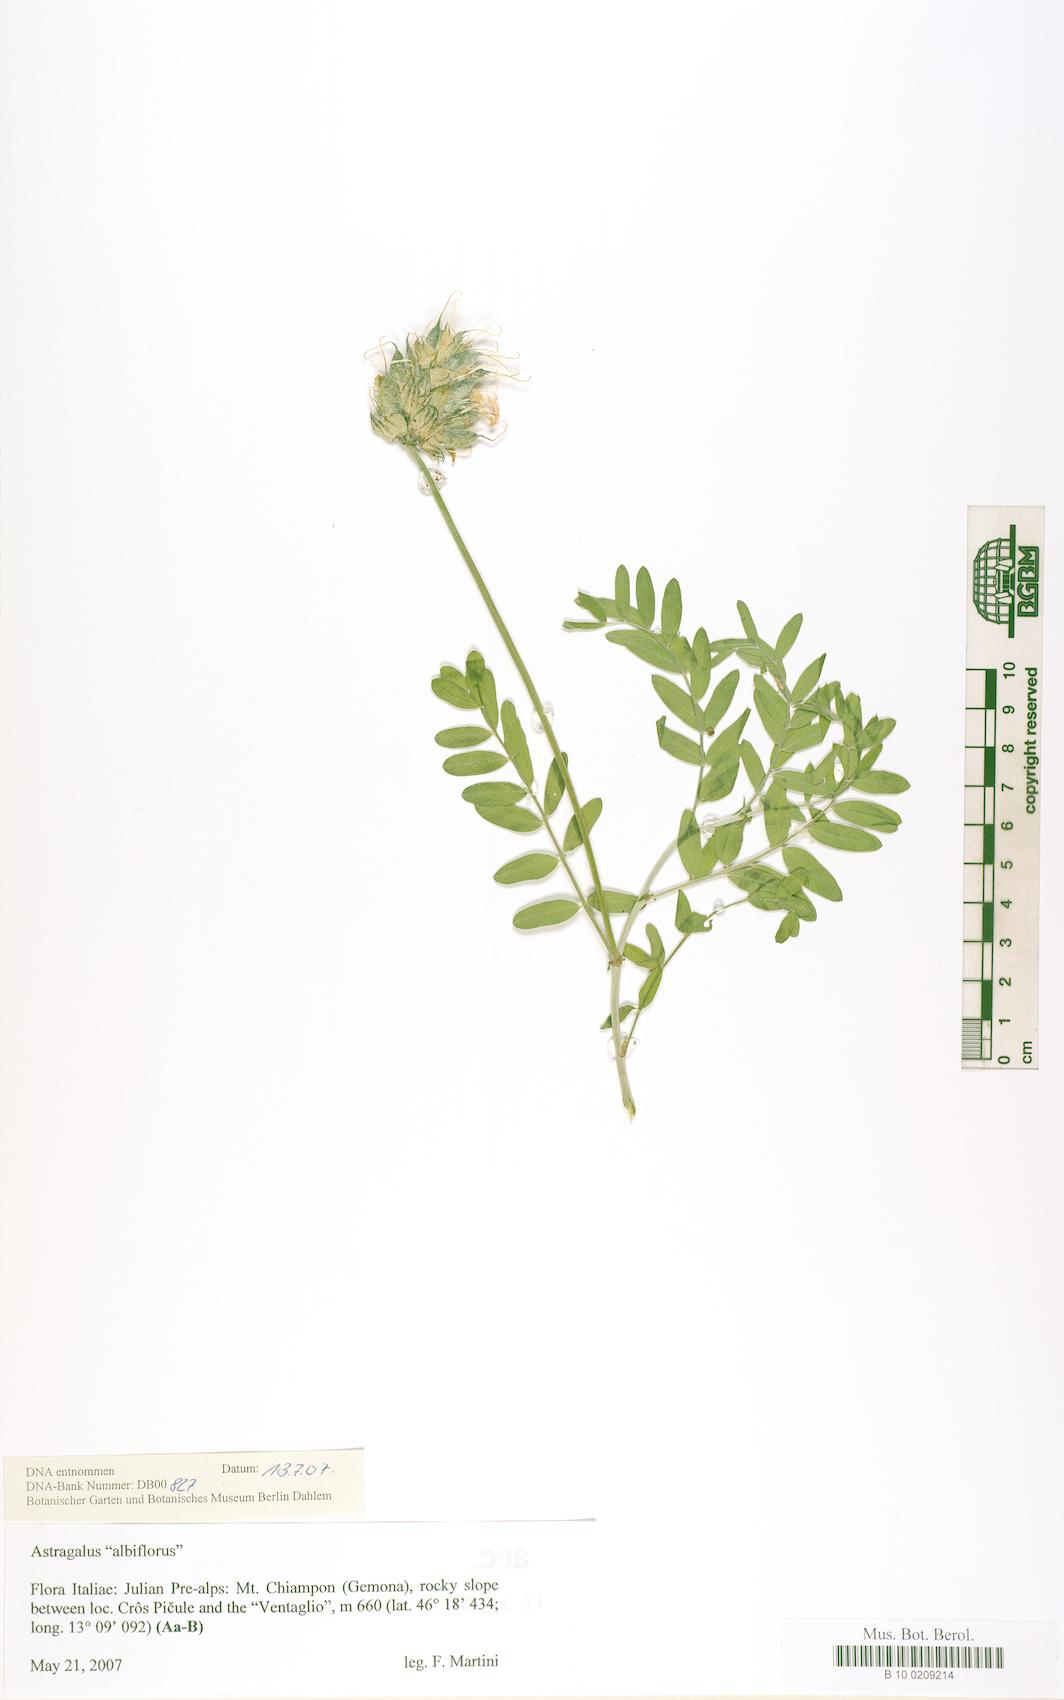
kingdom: Plantae
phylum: Tracheophyta
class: Magnoliopsida
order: Fabales
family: Fabaceae
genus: Oxytropis
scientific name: Oxytropis
